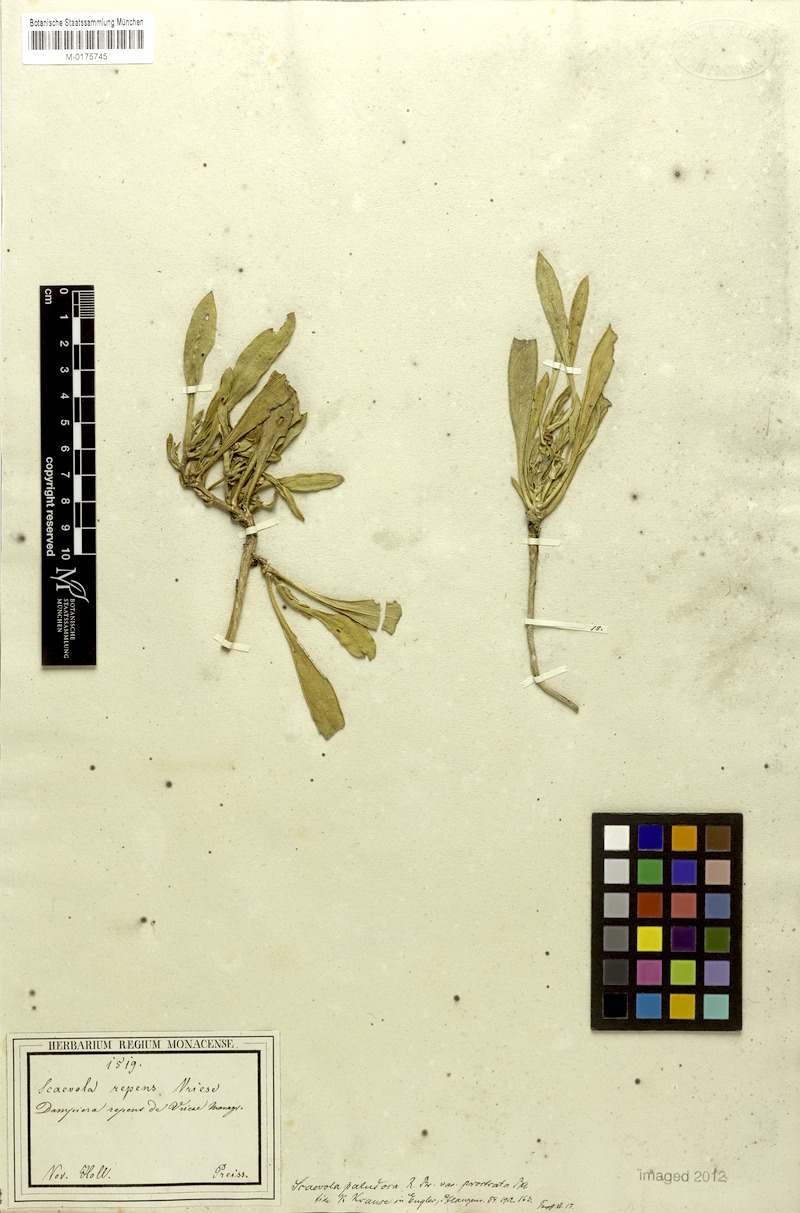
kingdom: Plantae
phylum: Tracheophyta
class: Magnoliopsida
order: Asterales
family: Goodeniaceae
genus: Scaevola
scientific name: Scaevola repens
